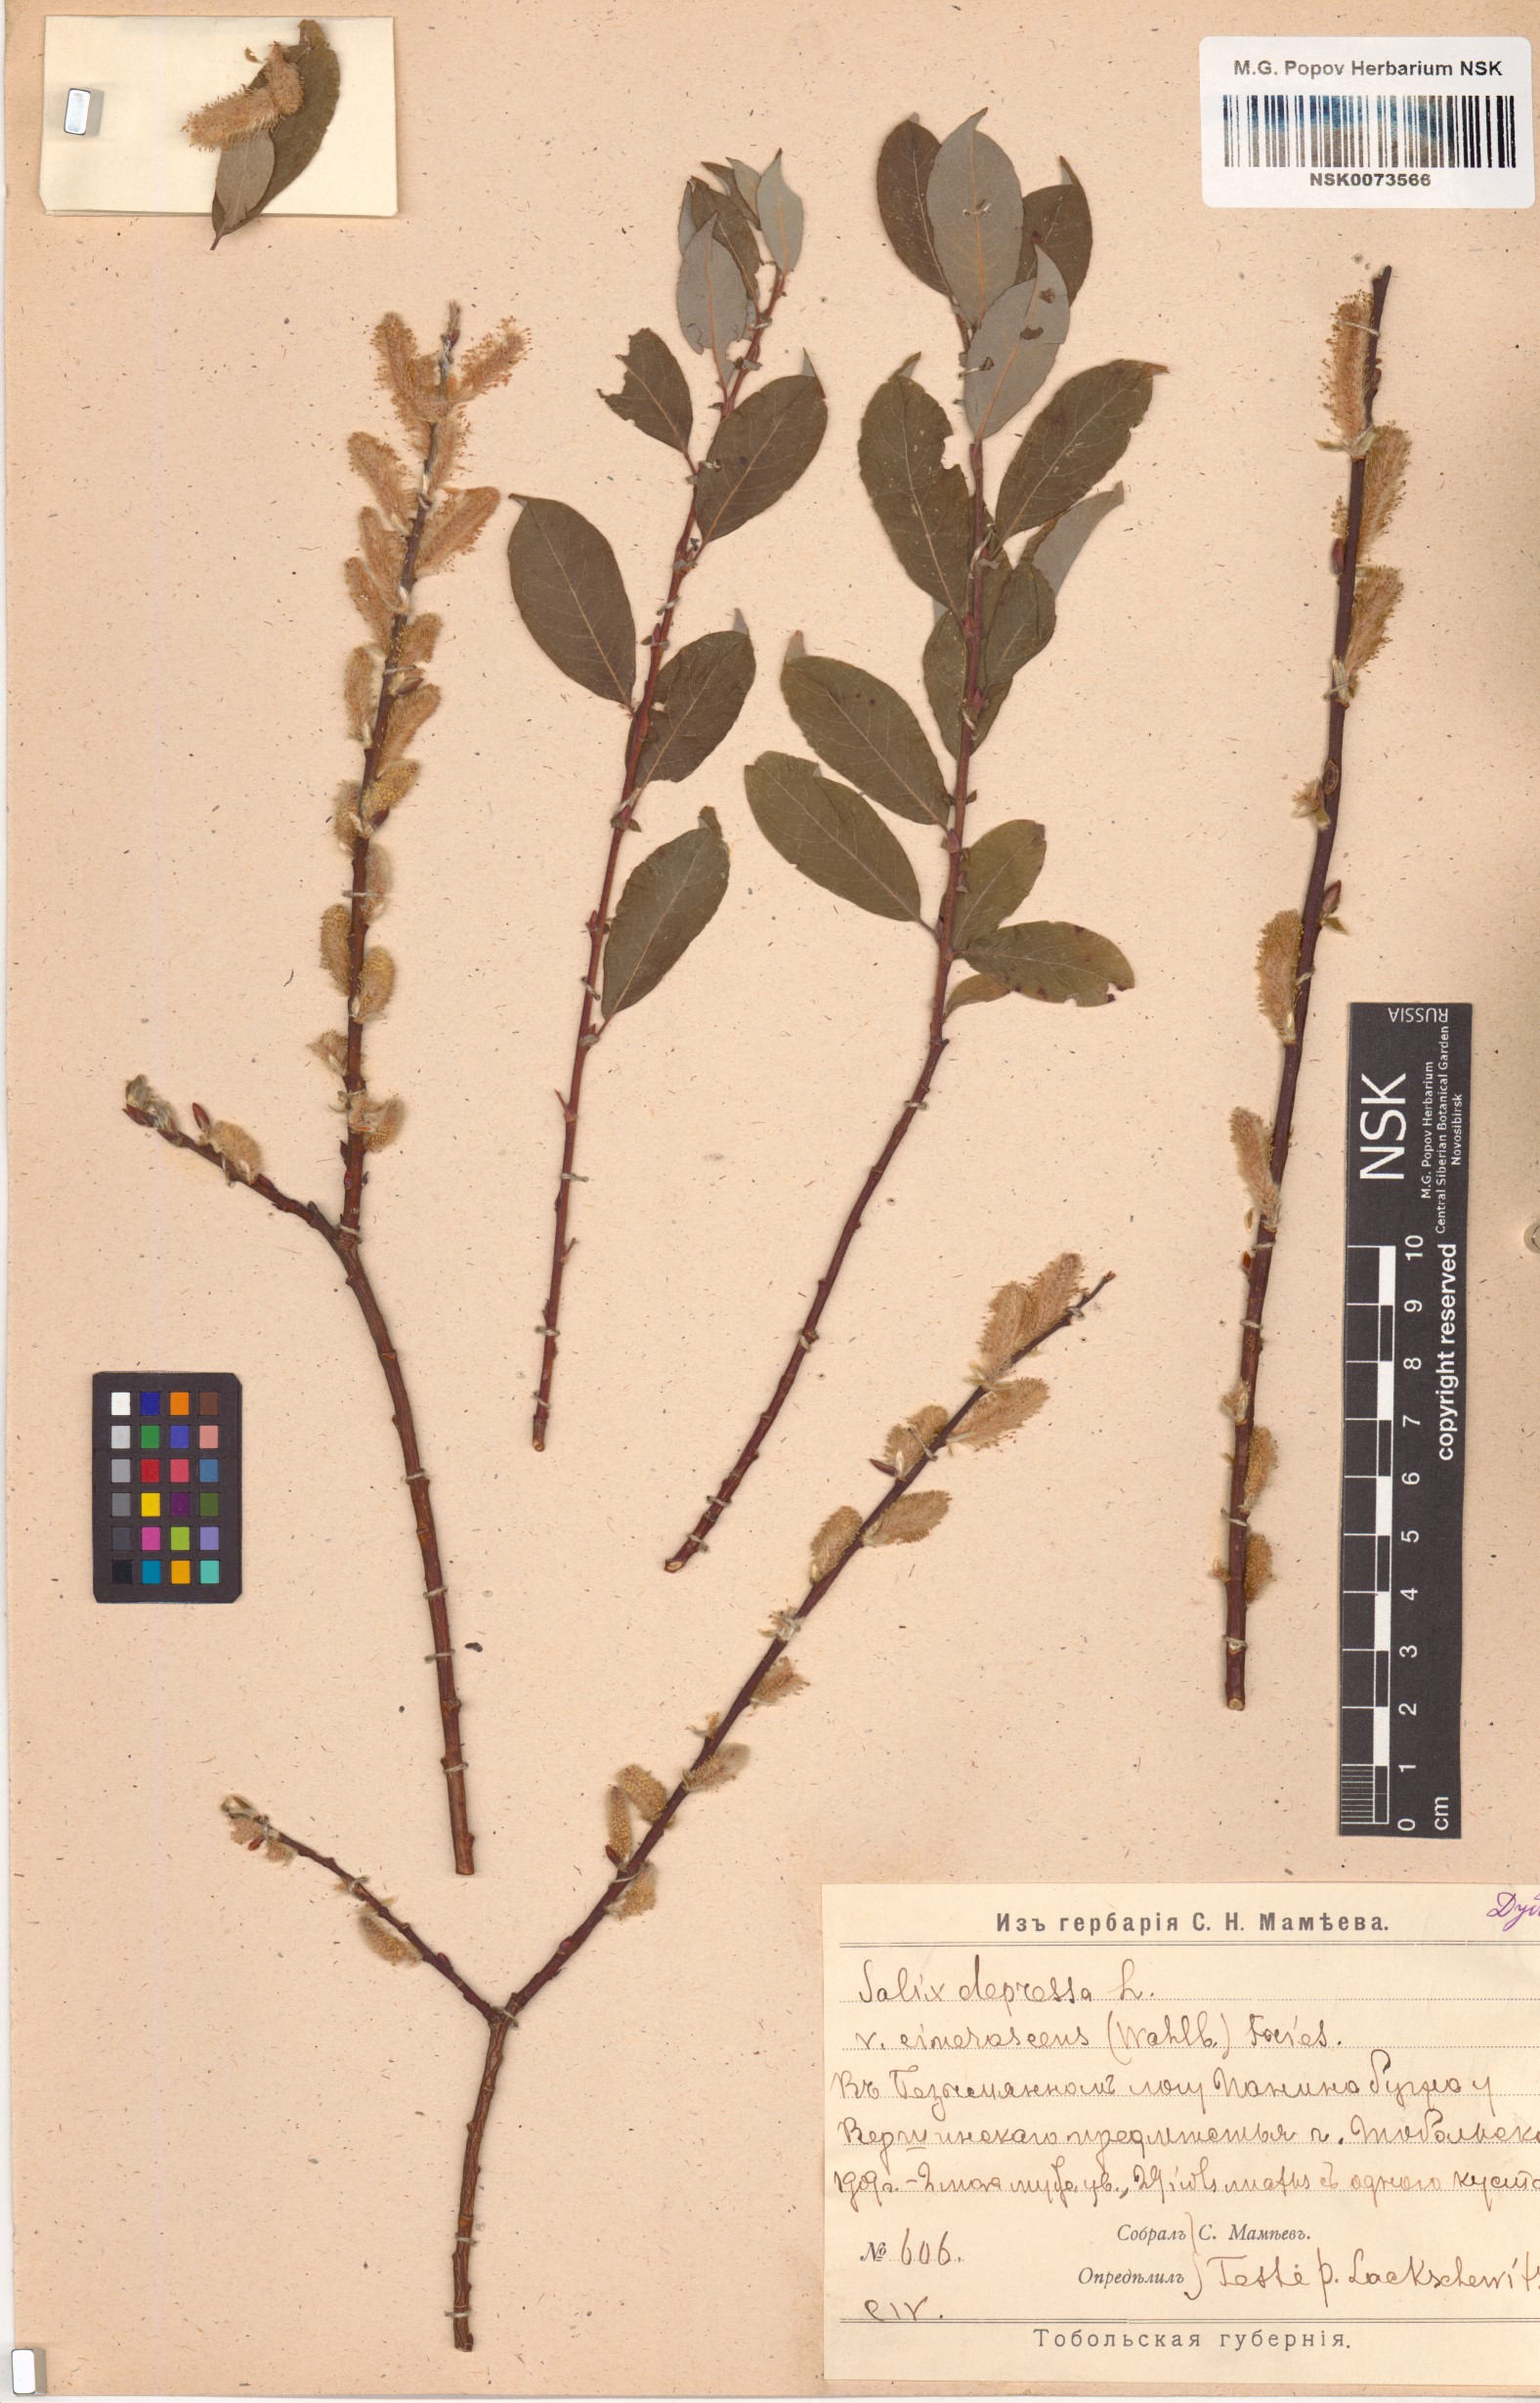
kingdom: Plantae
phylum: Tracheophyta
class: Magnoliopsida
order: Malpighiales
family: Salicaceae
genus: Salix
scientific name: Salix
